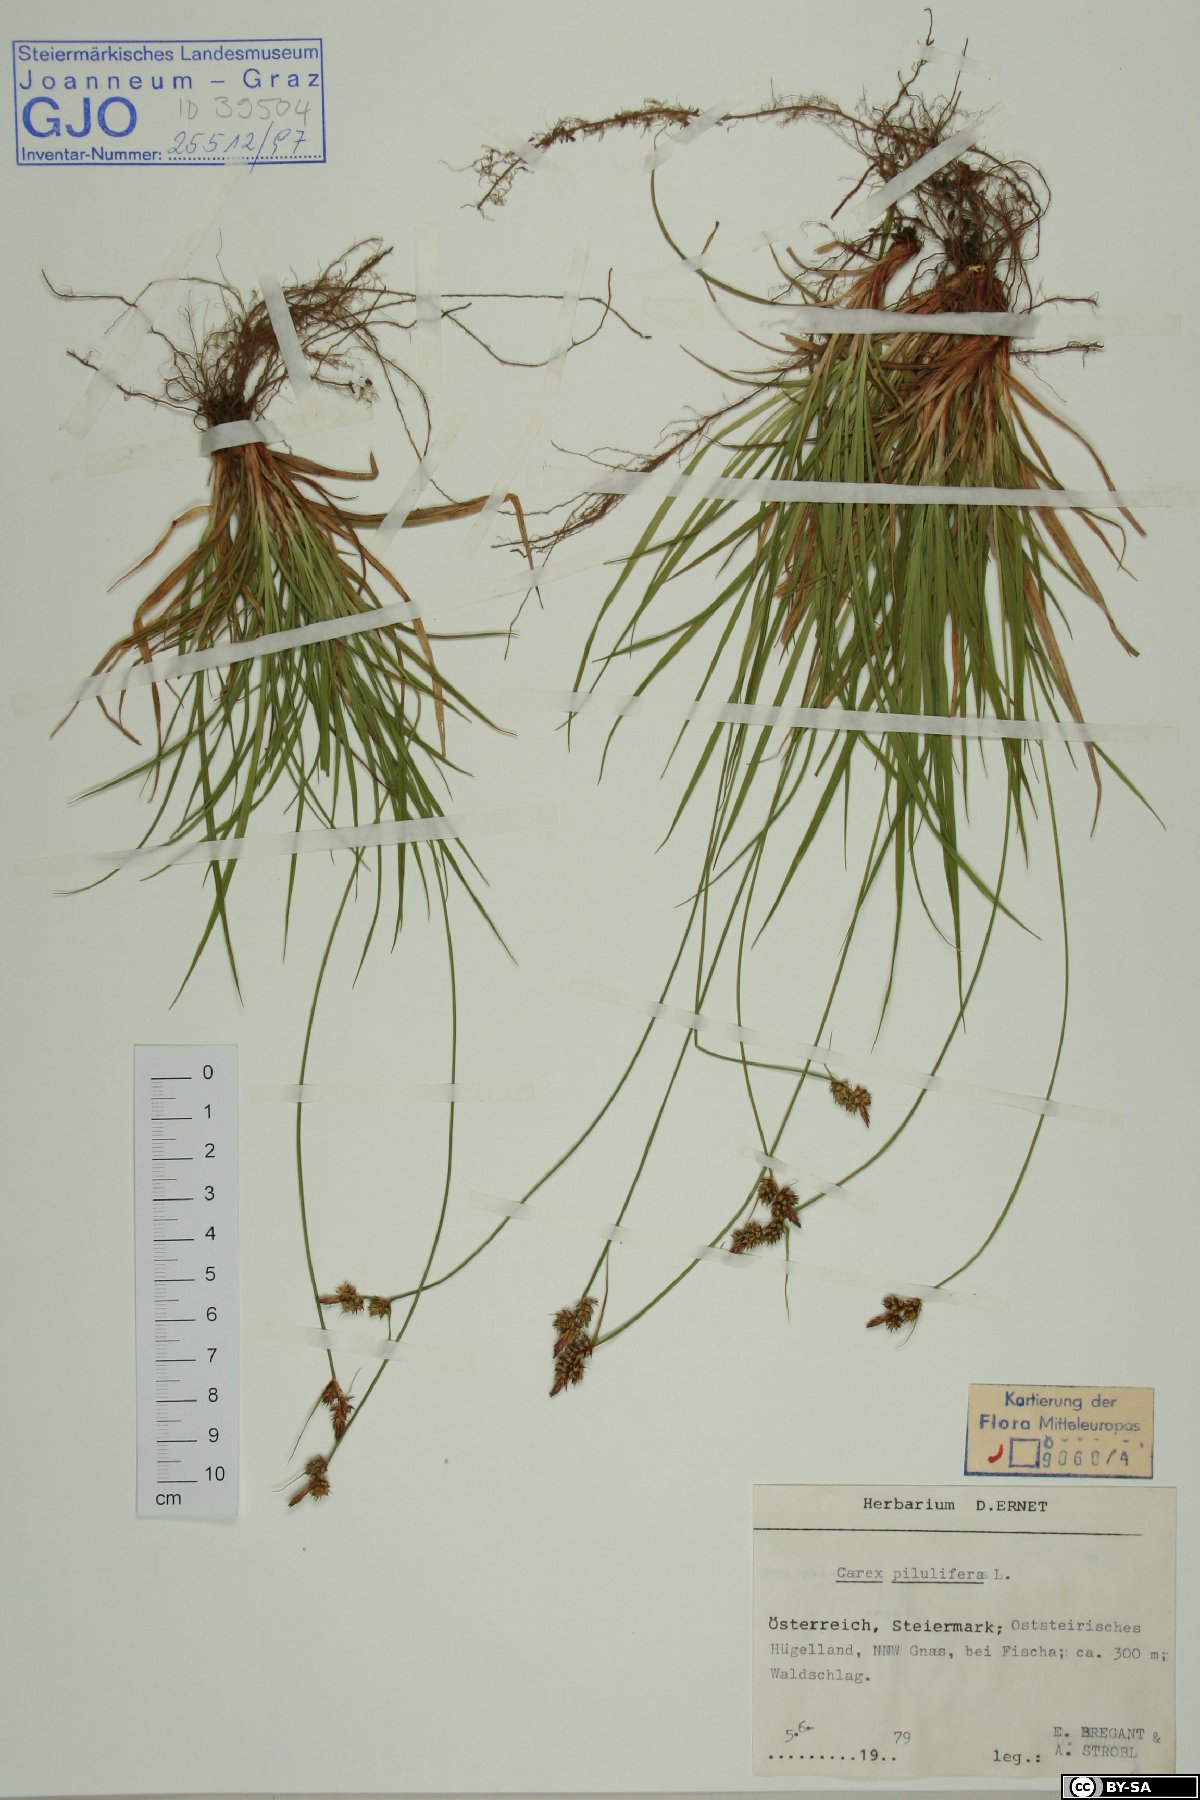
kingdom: Plantae
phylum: Tracheophyta
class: Liliopsida
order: Poales
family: Cyperaceae
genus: Carex
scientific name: Carex pilulifera
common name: Pill sedge
